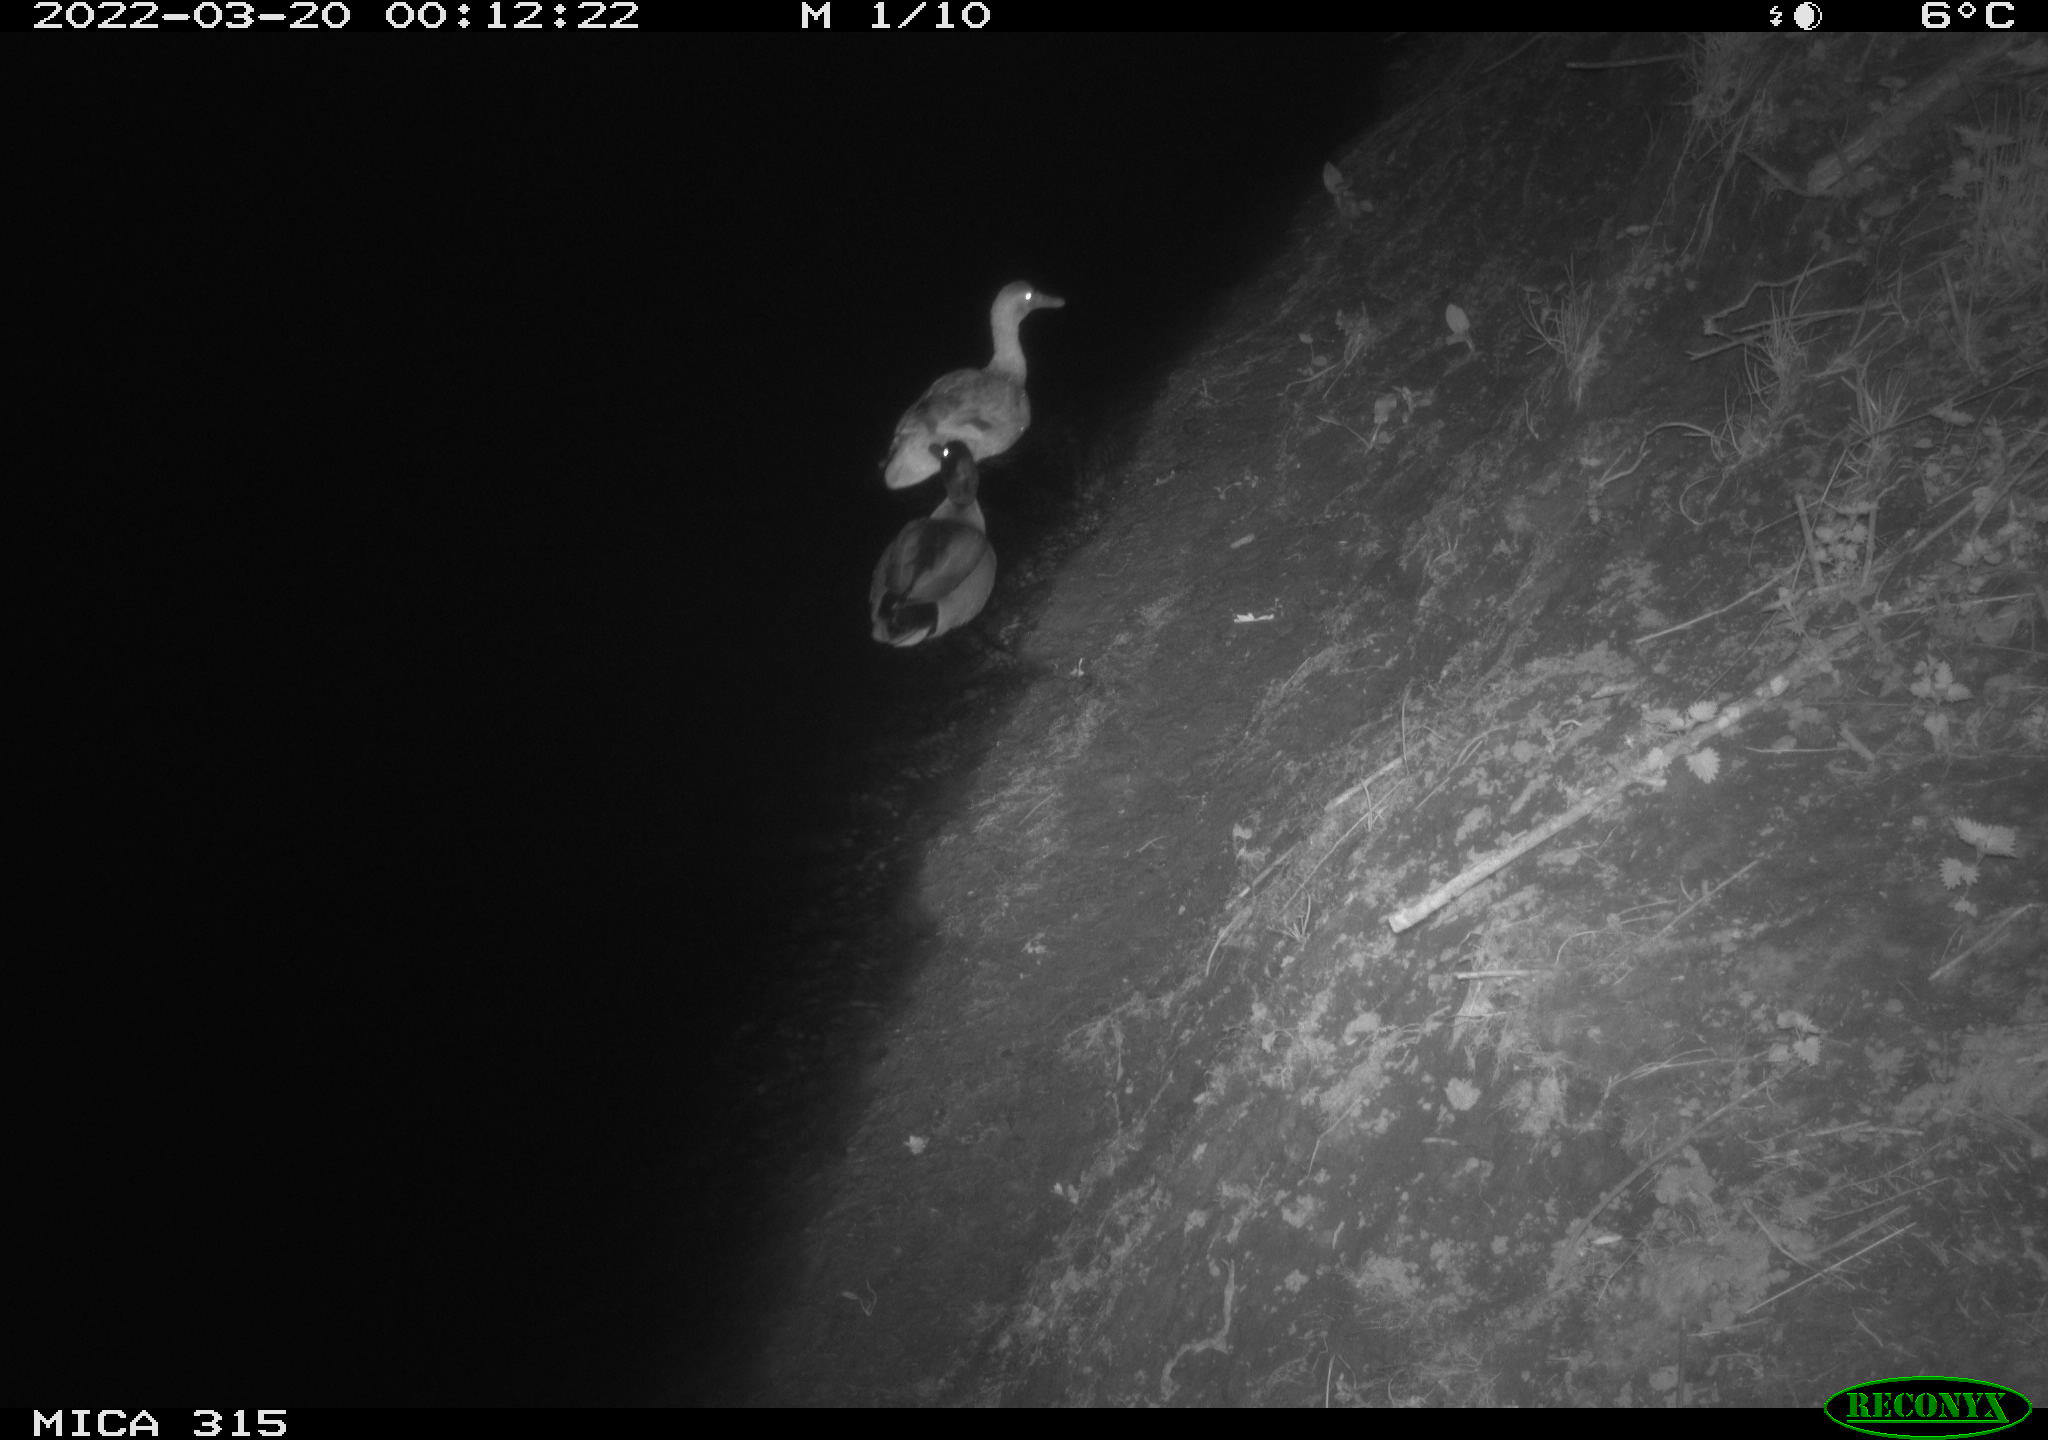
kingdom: Animalia
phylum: Chordata
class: Aves
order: Anseriformes
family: Anatidae
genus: Anas
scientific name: Anas platyrhynchos
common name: Mallard
